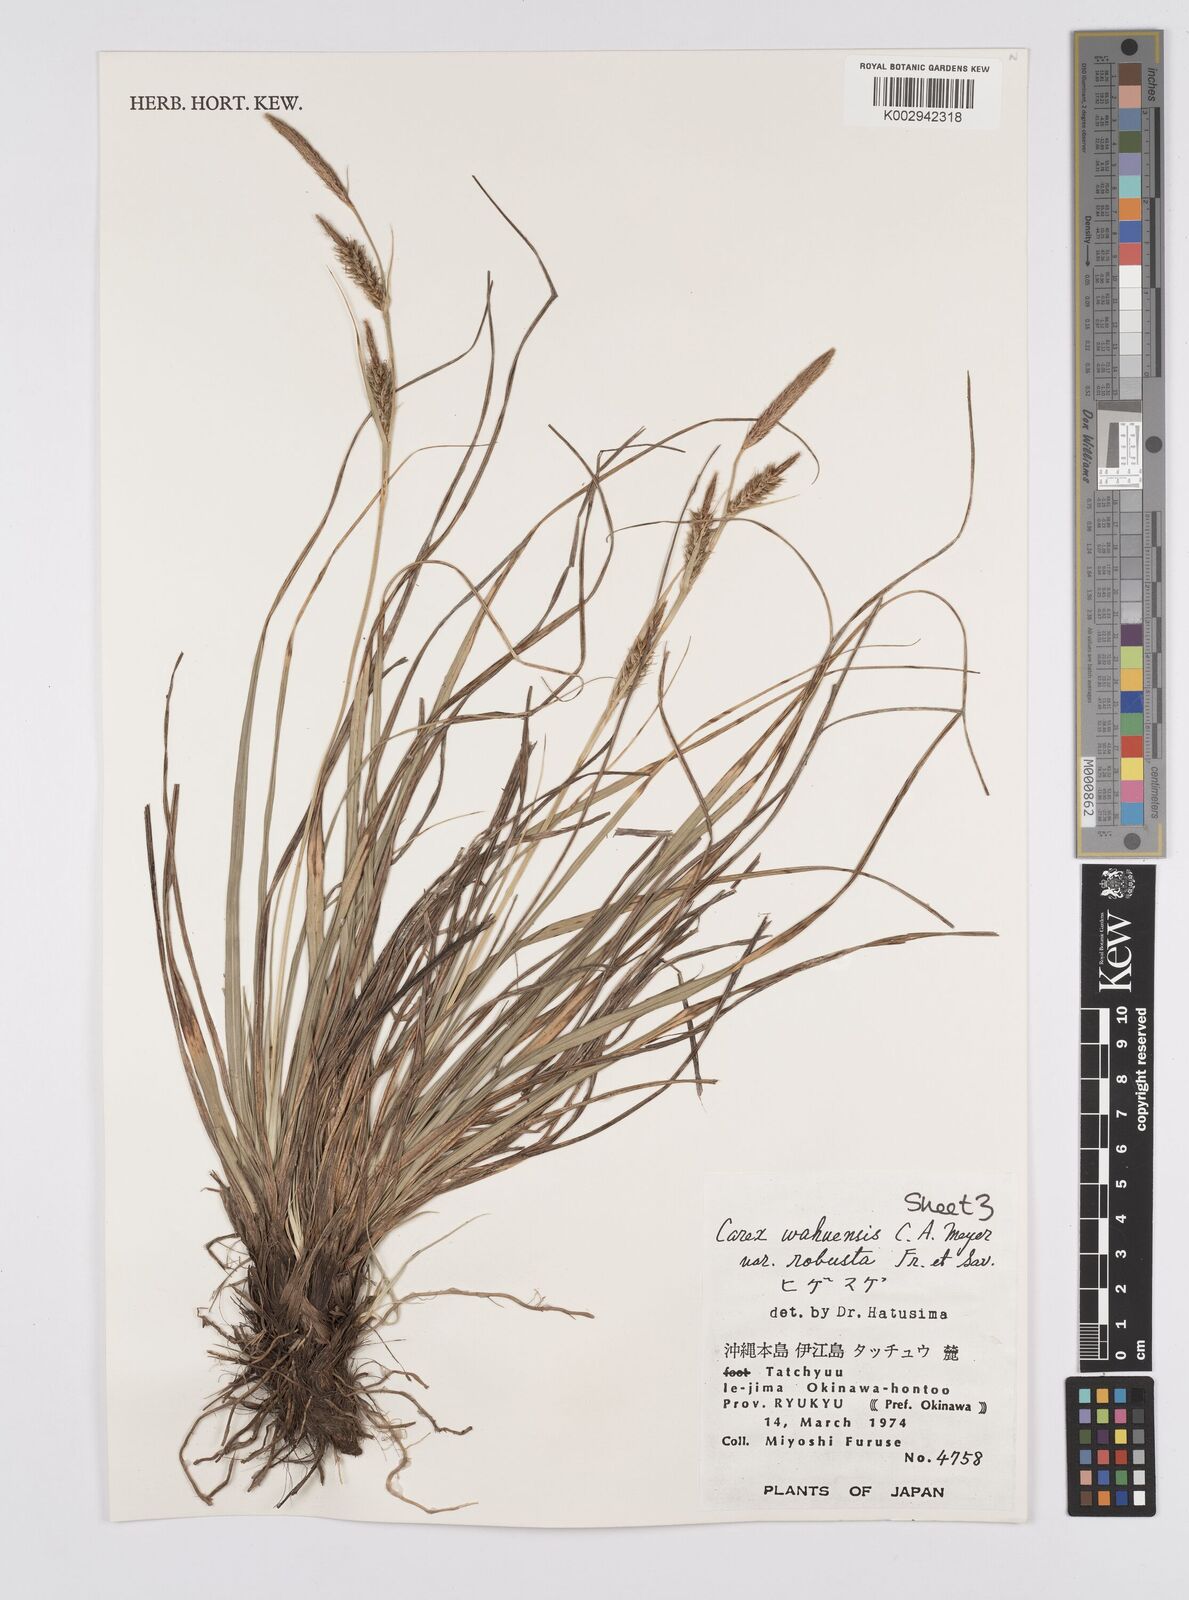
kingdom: Plantae
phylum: Tracheophyta
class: Liliopsida
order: Poales
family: Cyperaceae
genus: Carex
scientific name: Carex wahuensis
